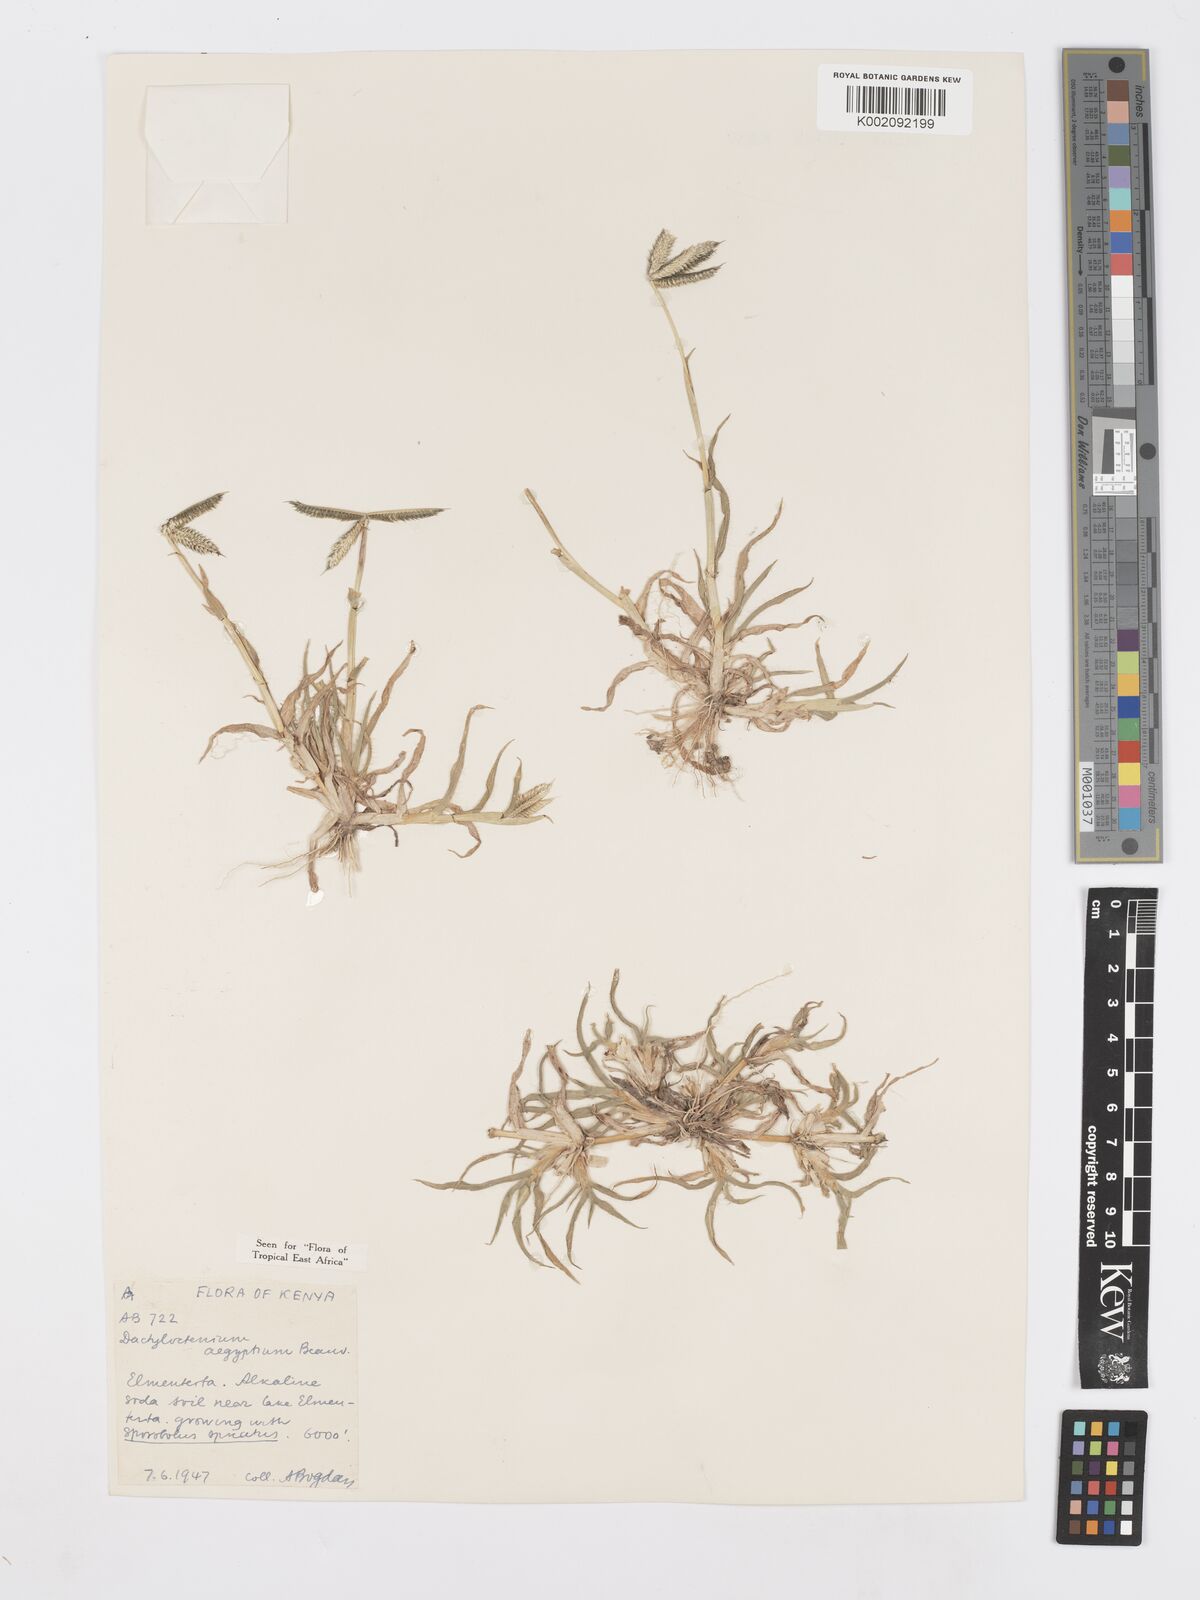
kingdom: Plantae
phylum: Tracheophyta
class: Liliopsida
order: Poales
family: Poaceae
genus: Dactyloctenium
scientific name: Dactyloctenium aegyptium
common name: Egyptian grass
